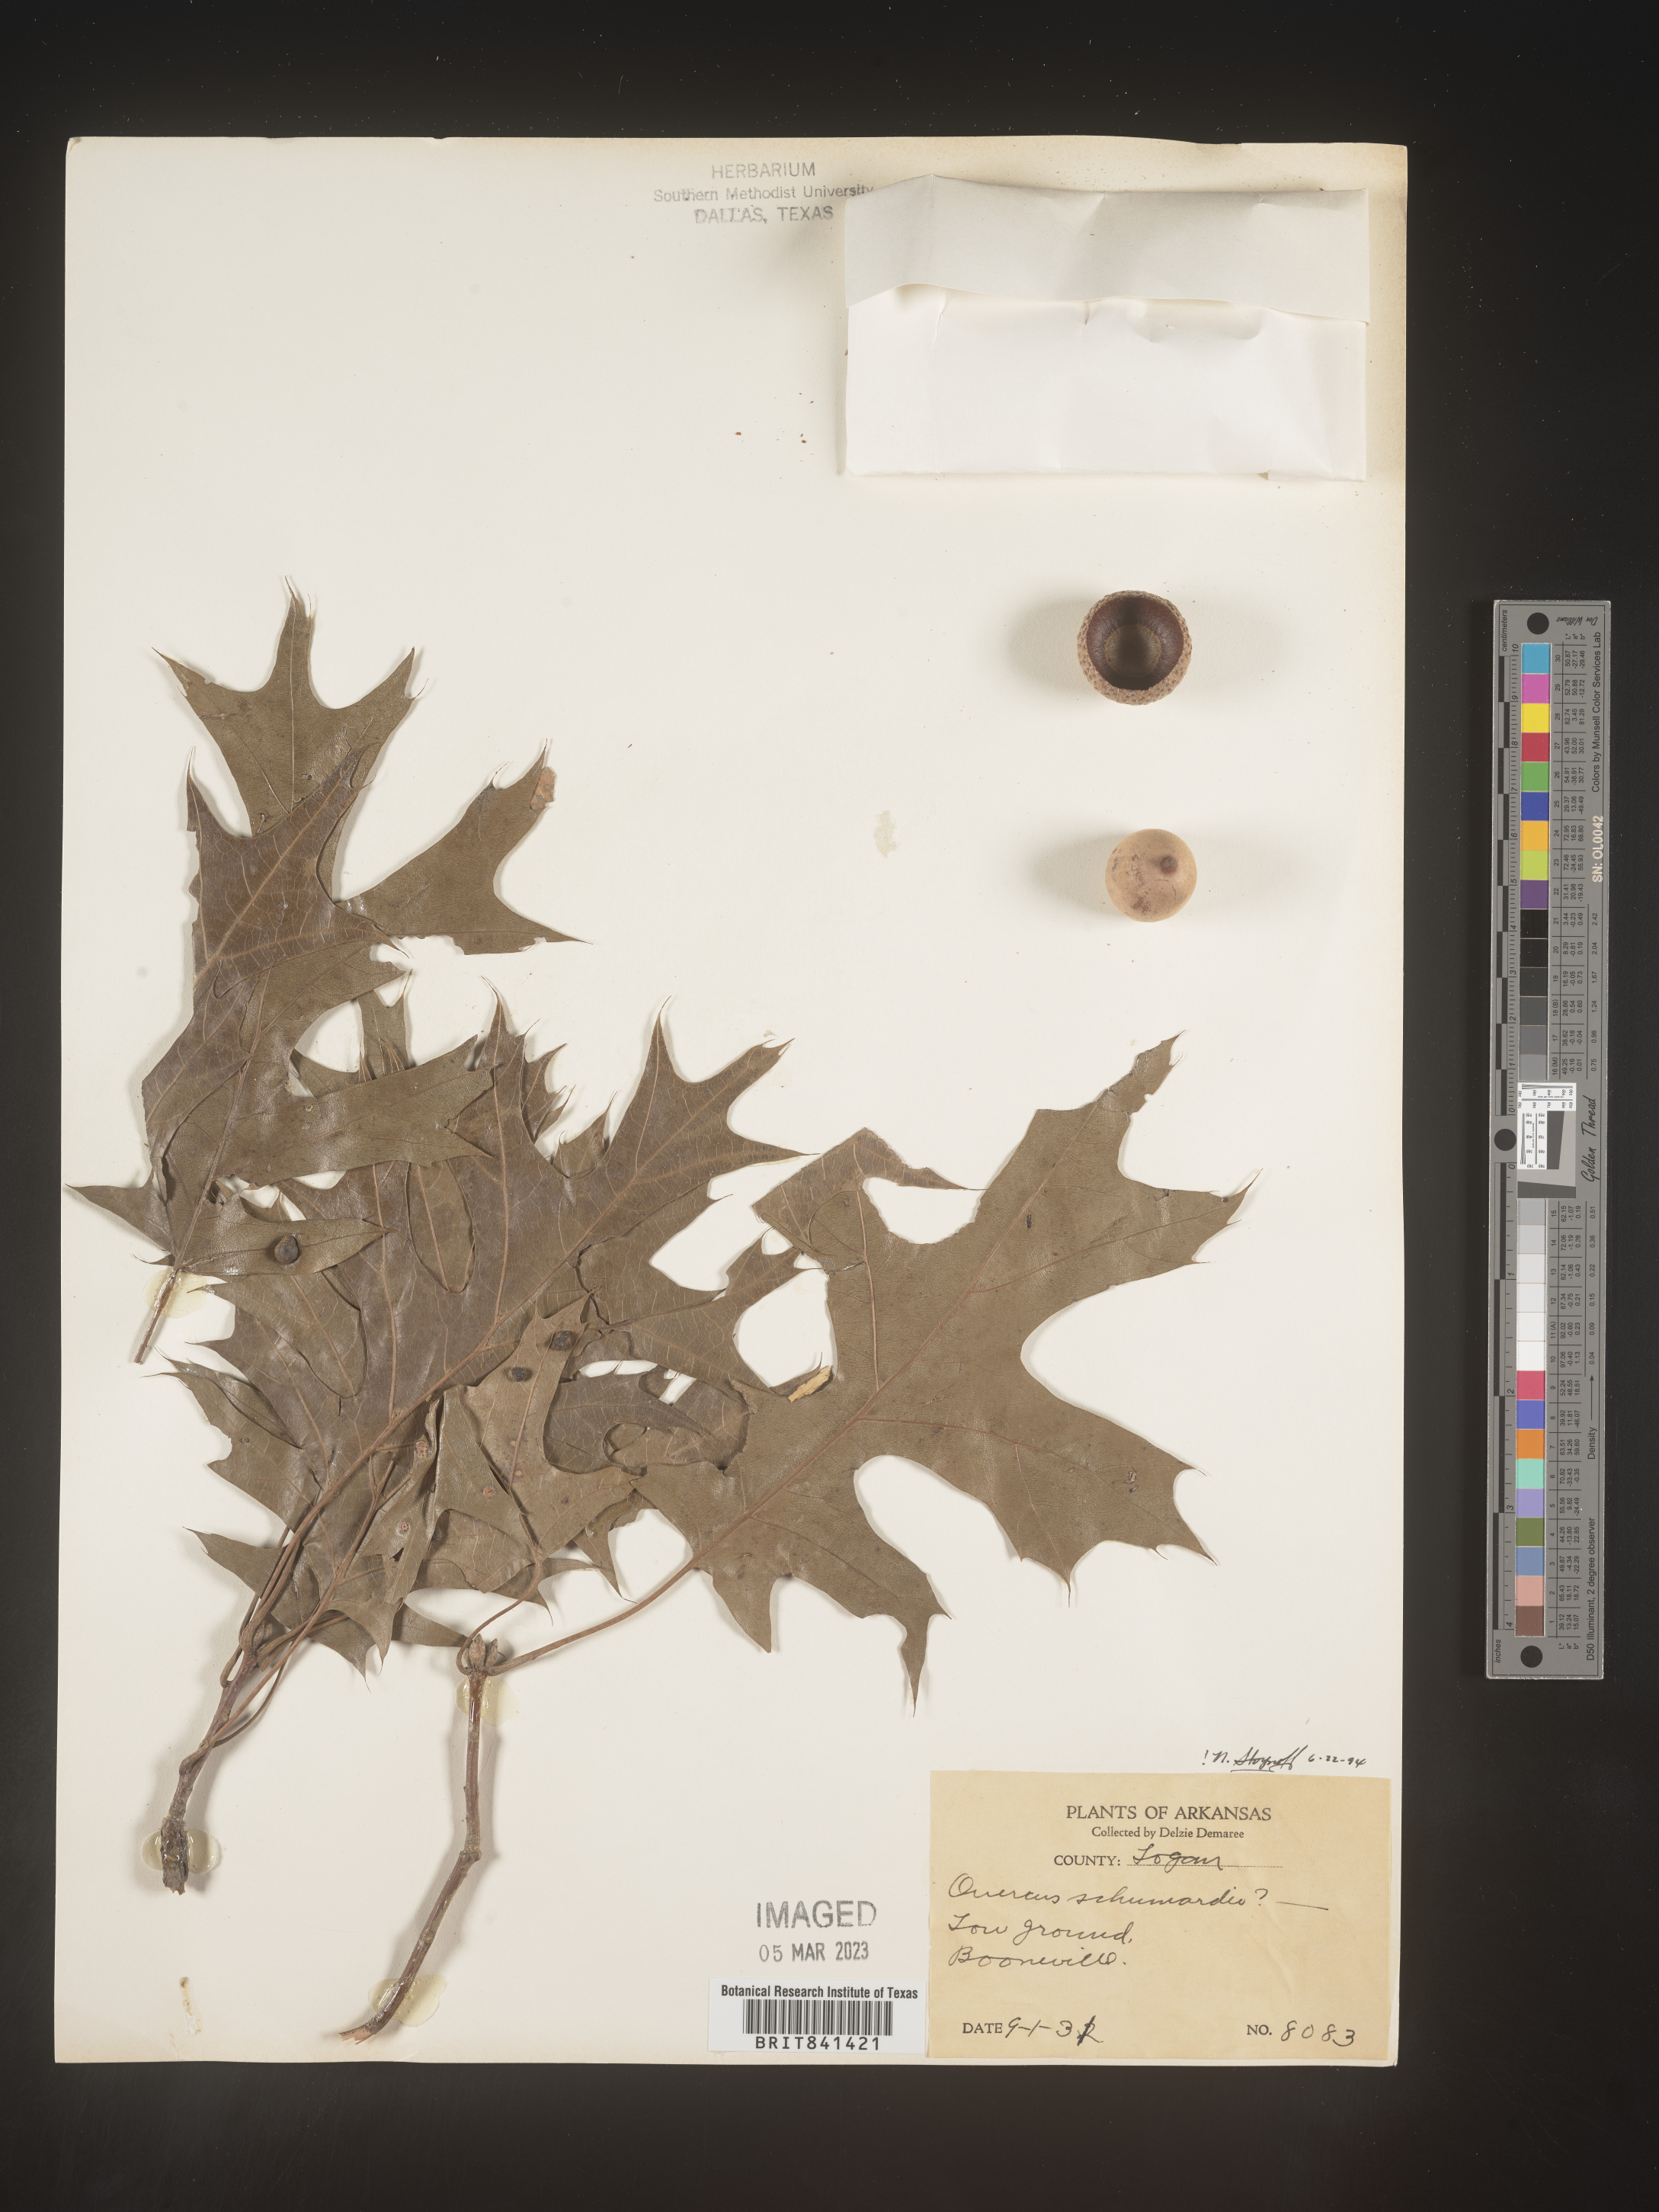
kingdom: Plantae
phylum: Tracheophyta
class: Magnoliopsida
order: Fagales
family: Fagaceae
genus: Quercus
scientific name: Quercus shumardii
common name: Shumard oak
